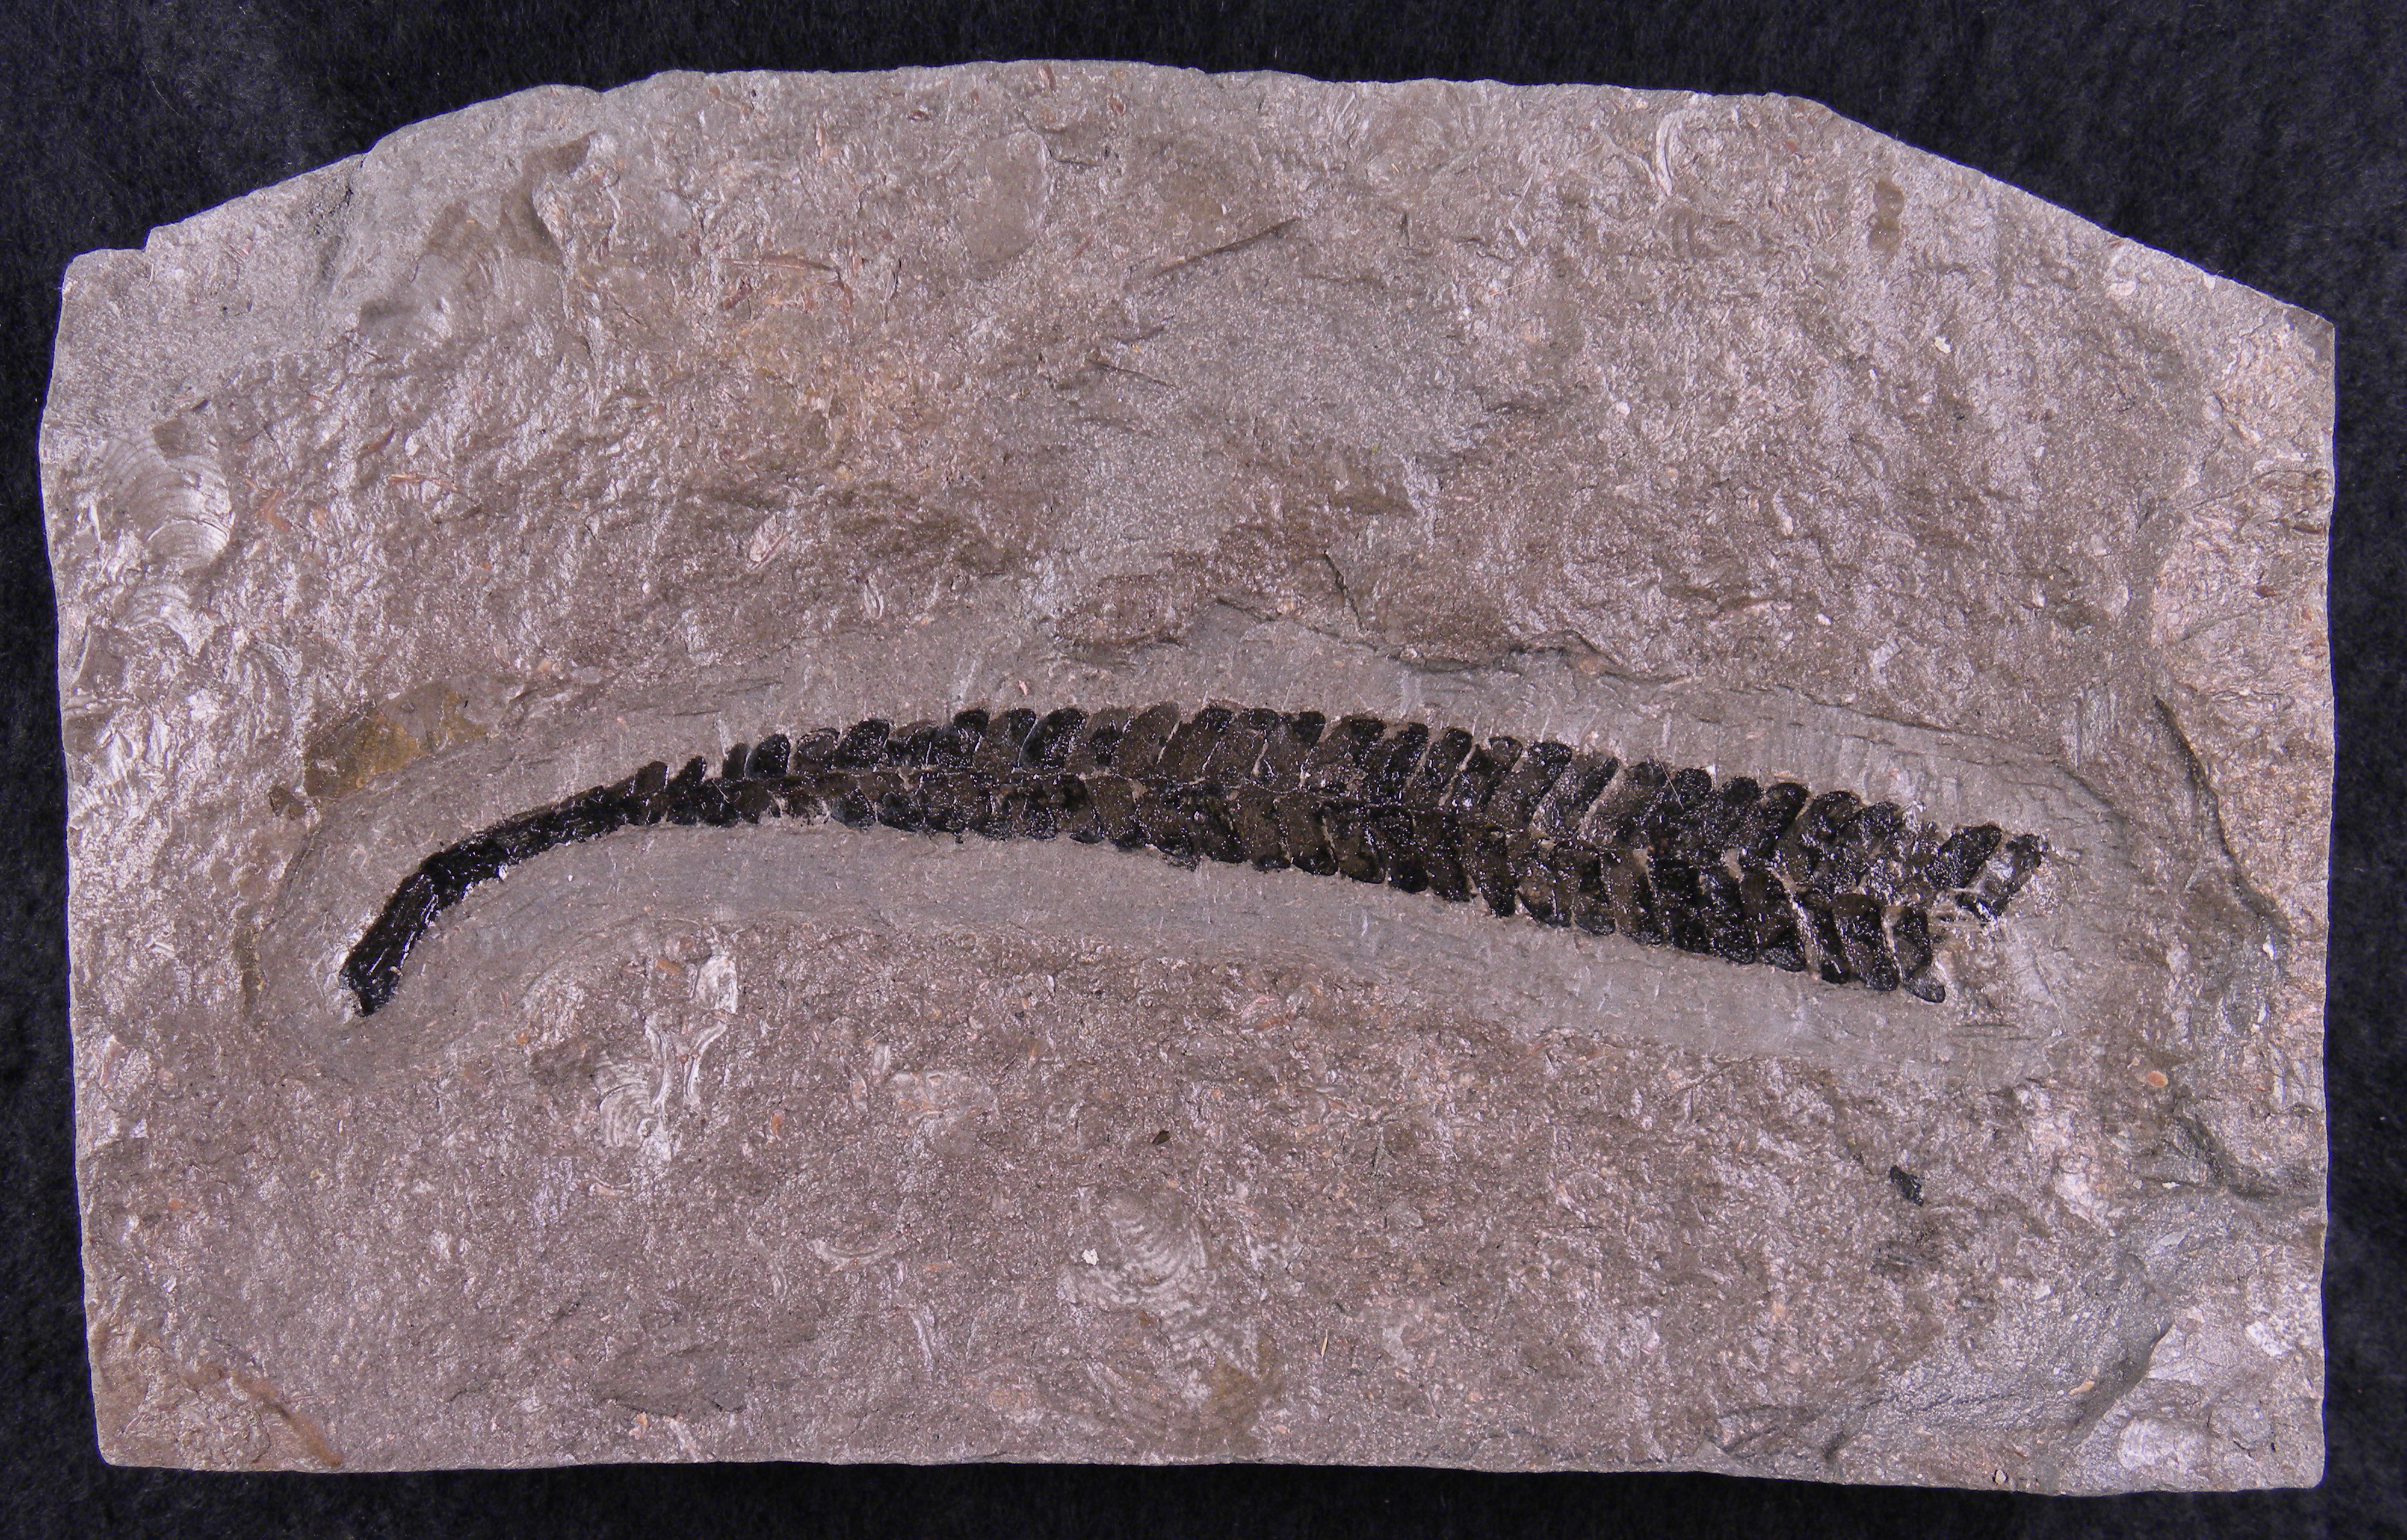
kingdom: Plantae
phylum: Tracheophyta
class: Cycadopsida
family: Williamsoniaceae
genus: Otozamites
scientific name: Otozamites
